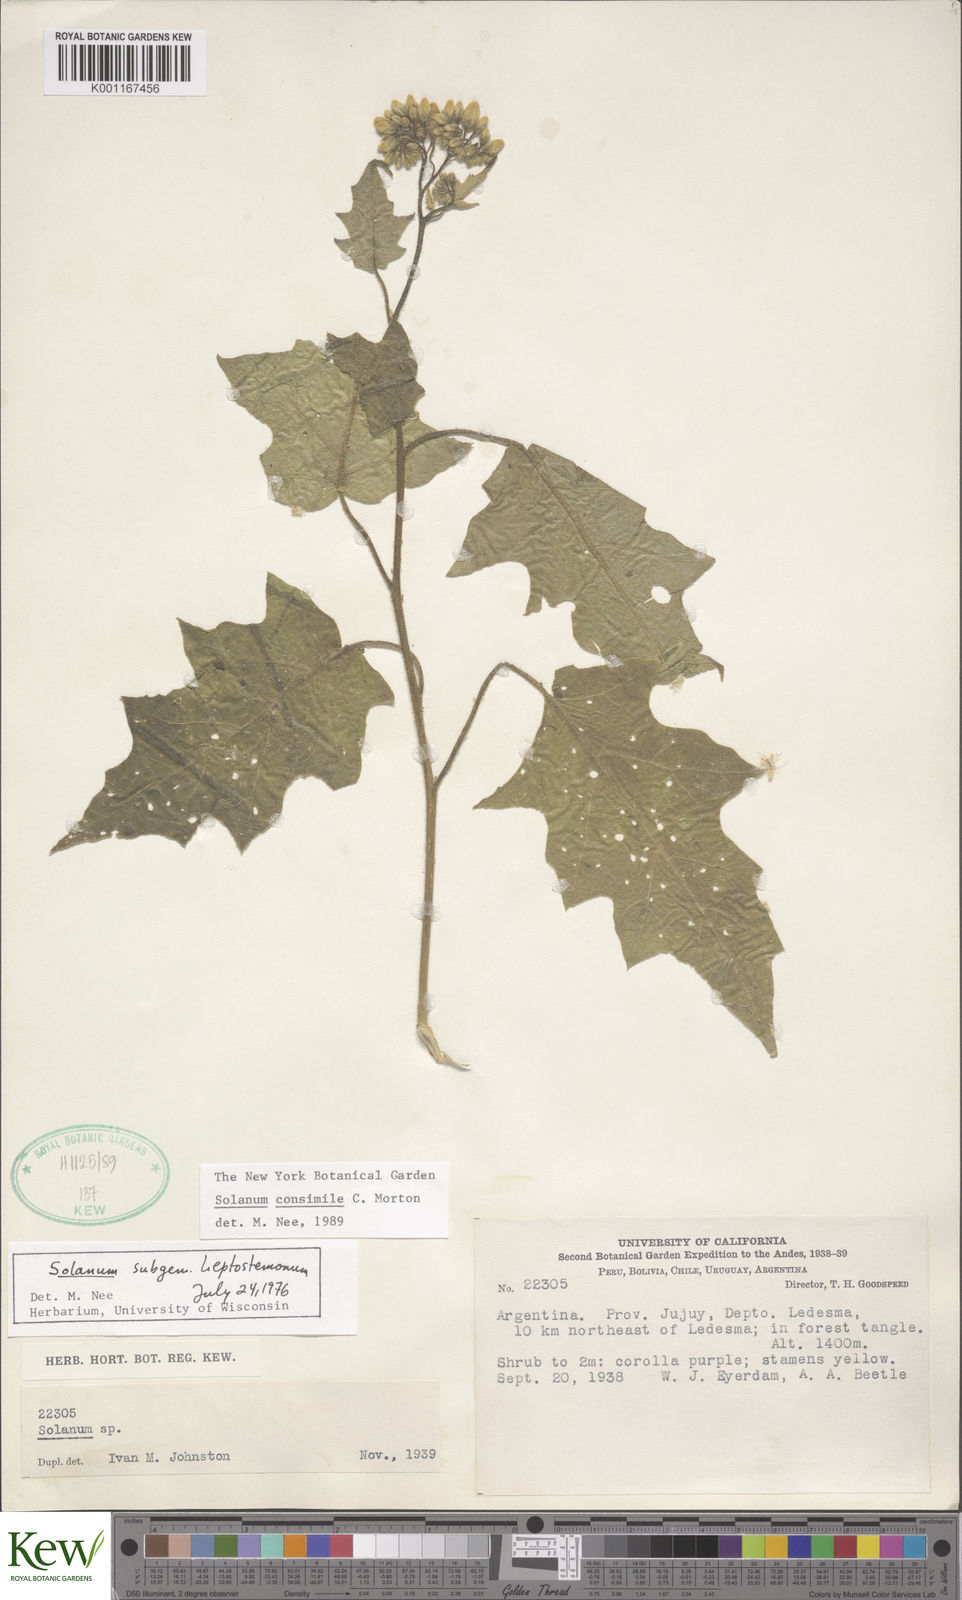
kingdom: Plantae
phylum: Tracheophyta
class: Magnoliopsida
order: Solanales
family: Solanaceae
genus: Solanum
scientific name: Solanum consimile
